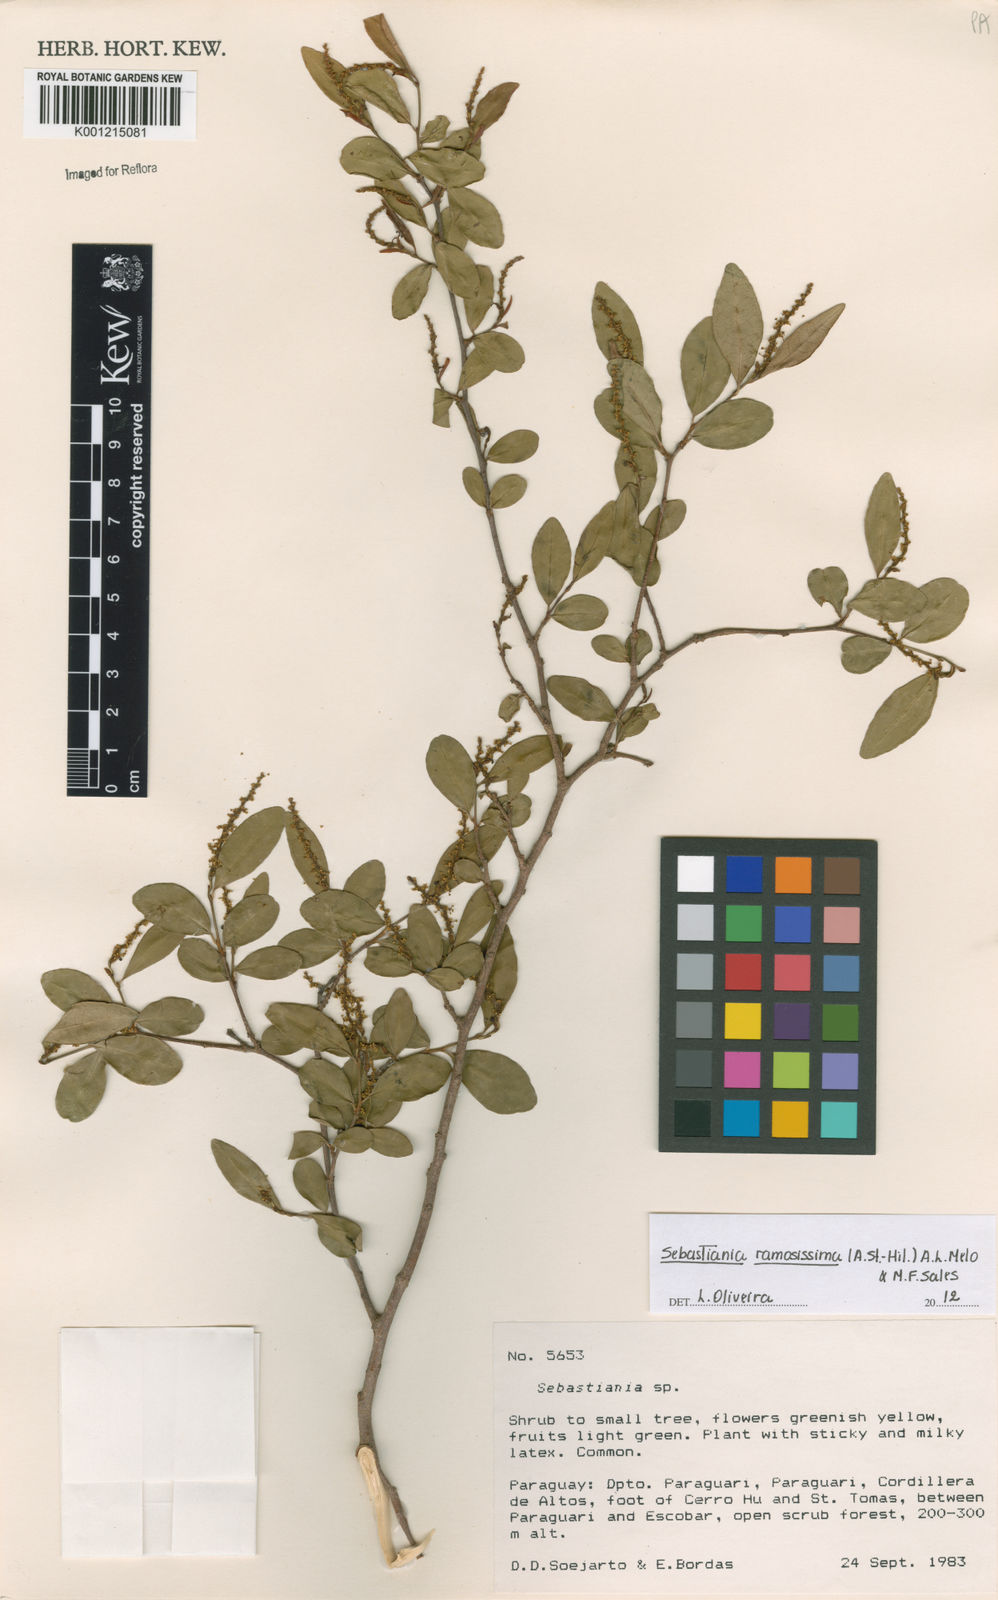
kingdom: Plantae
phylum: Tracheophyta
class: Magnoliopsida
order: Malpighiales
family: Euphorbiaceae
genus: Sebastiania
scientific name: Sebastiania
